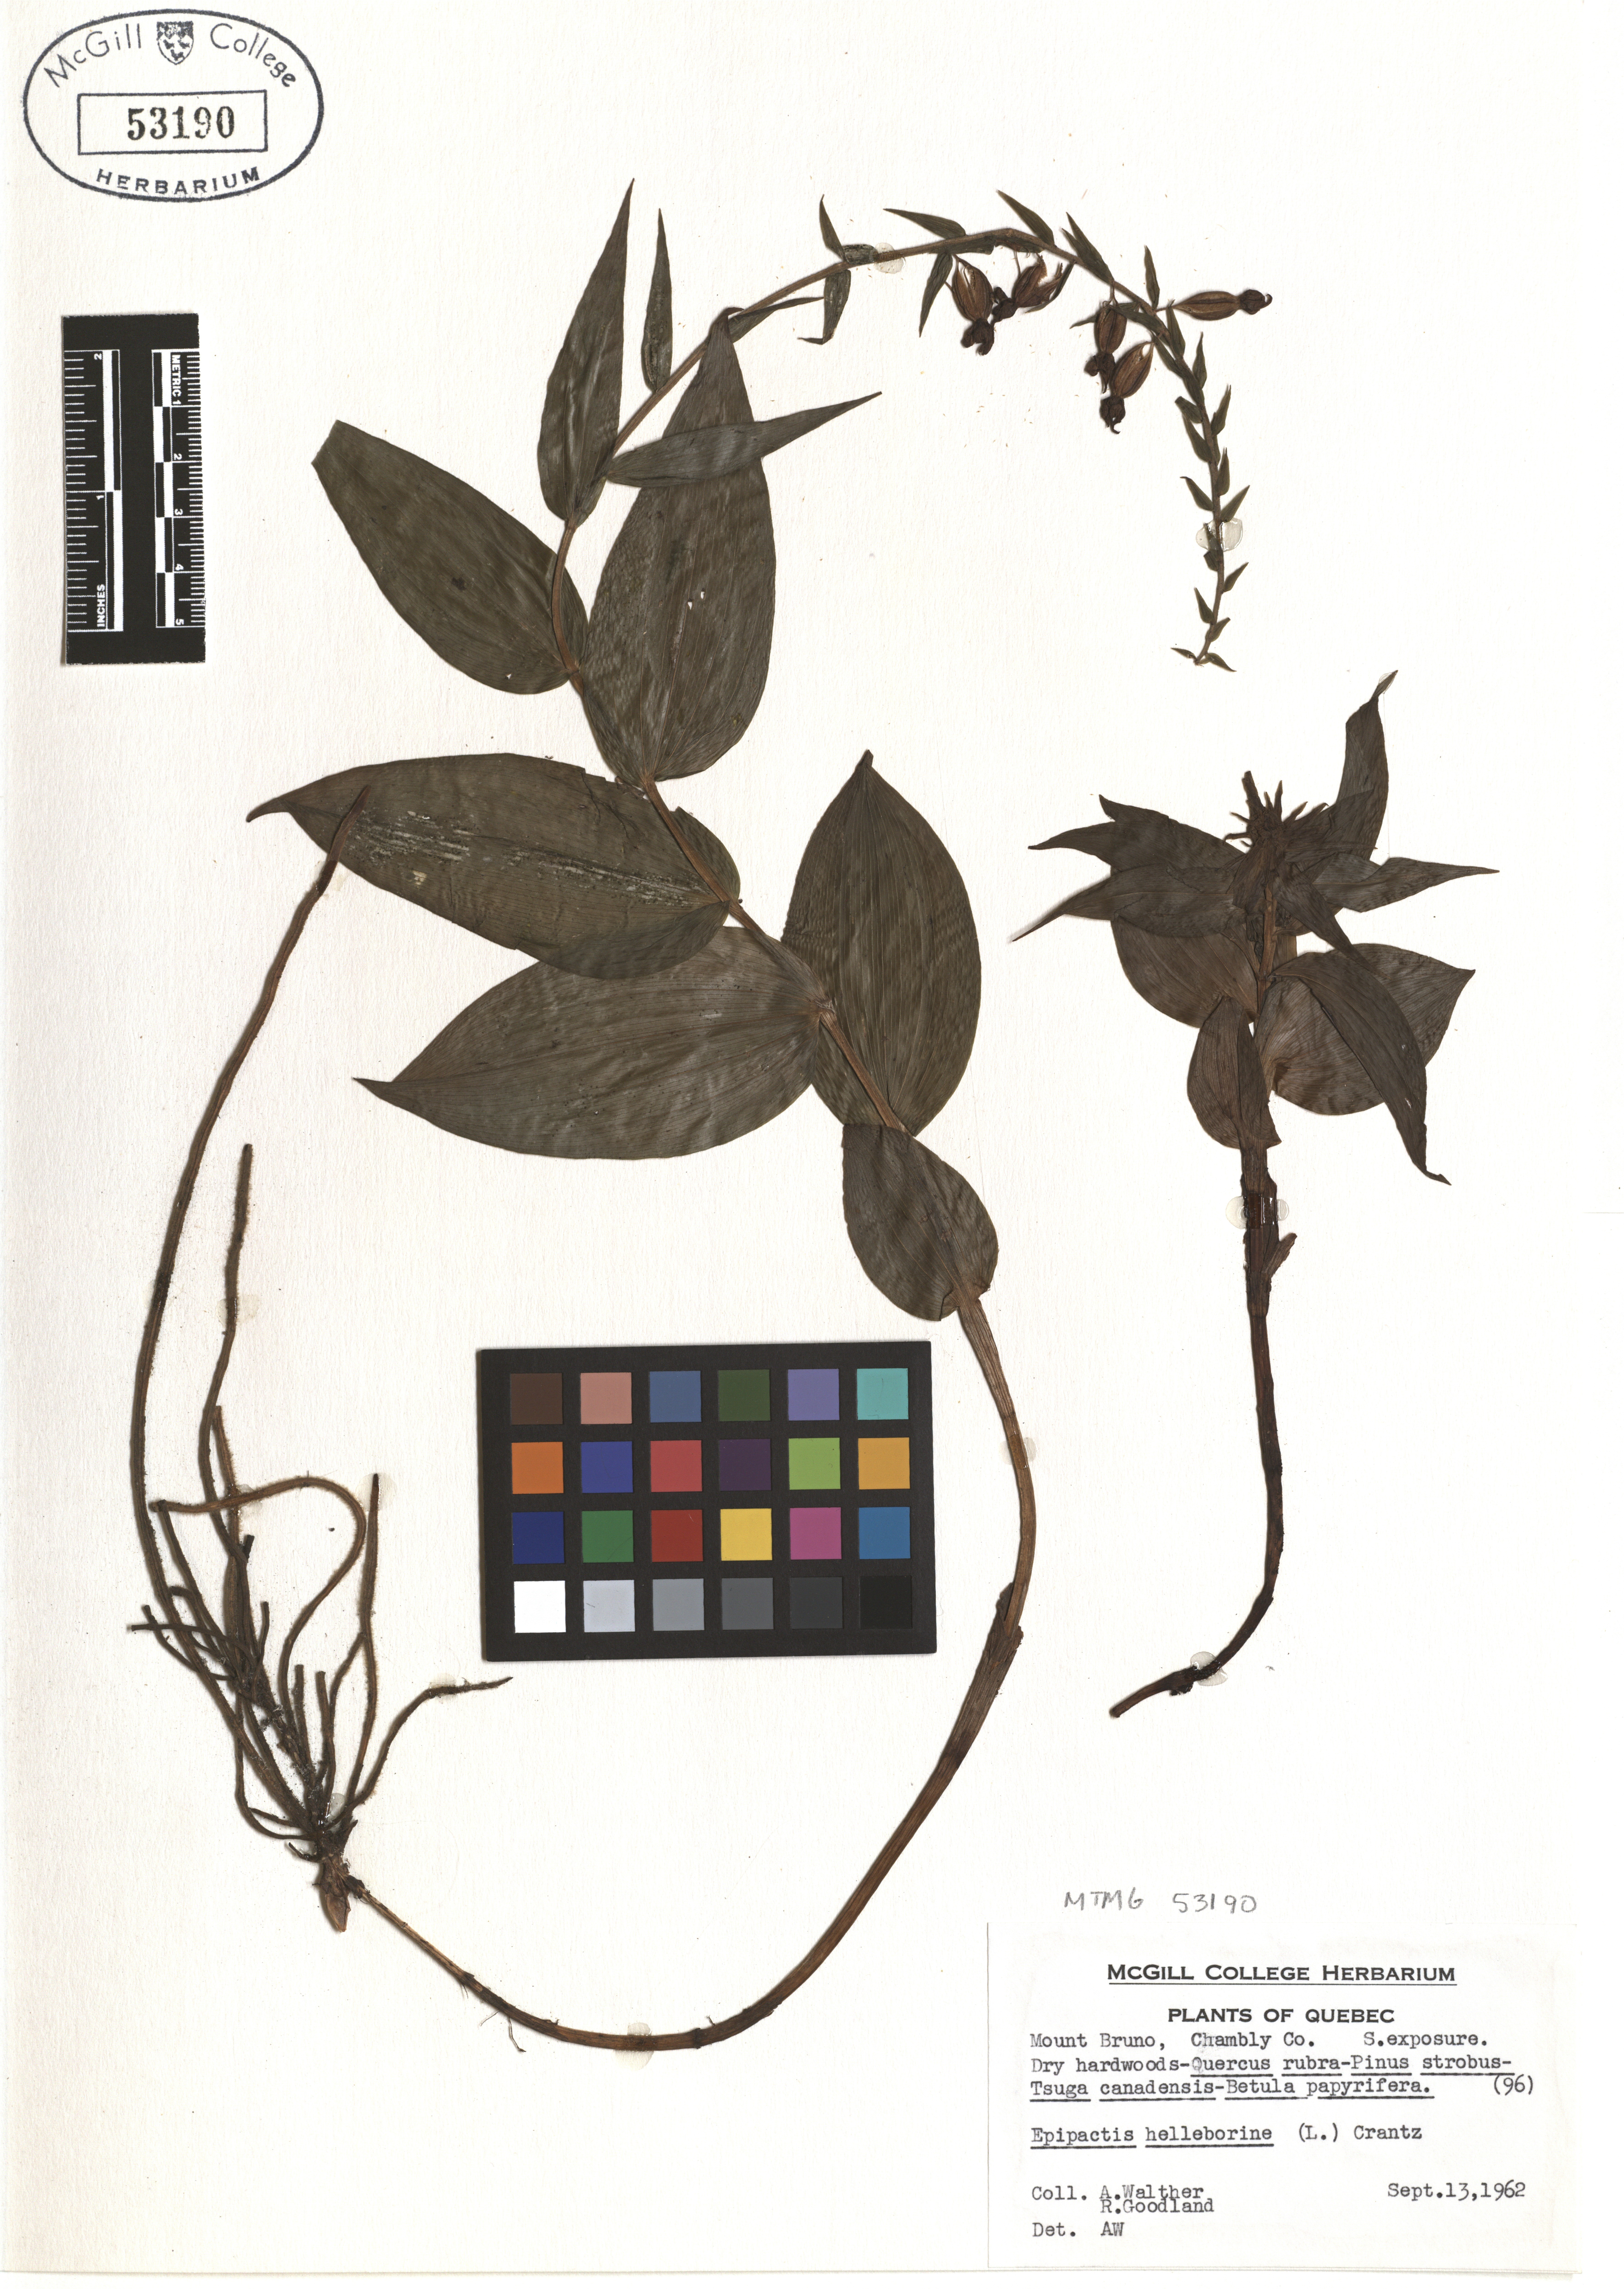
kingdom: Plantae
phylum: Tracheophyta
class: Liliopsida
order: Asparagales
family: Orchidaceae
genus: Epipactis
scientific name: Epipactis helleborine
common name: Broad-leaved helleborine
